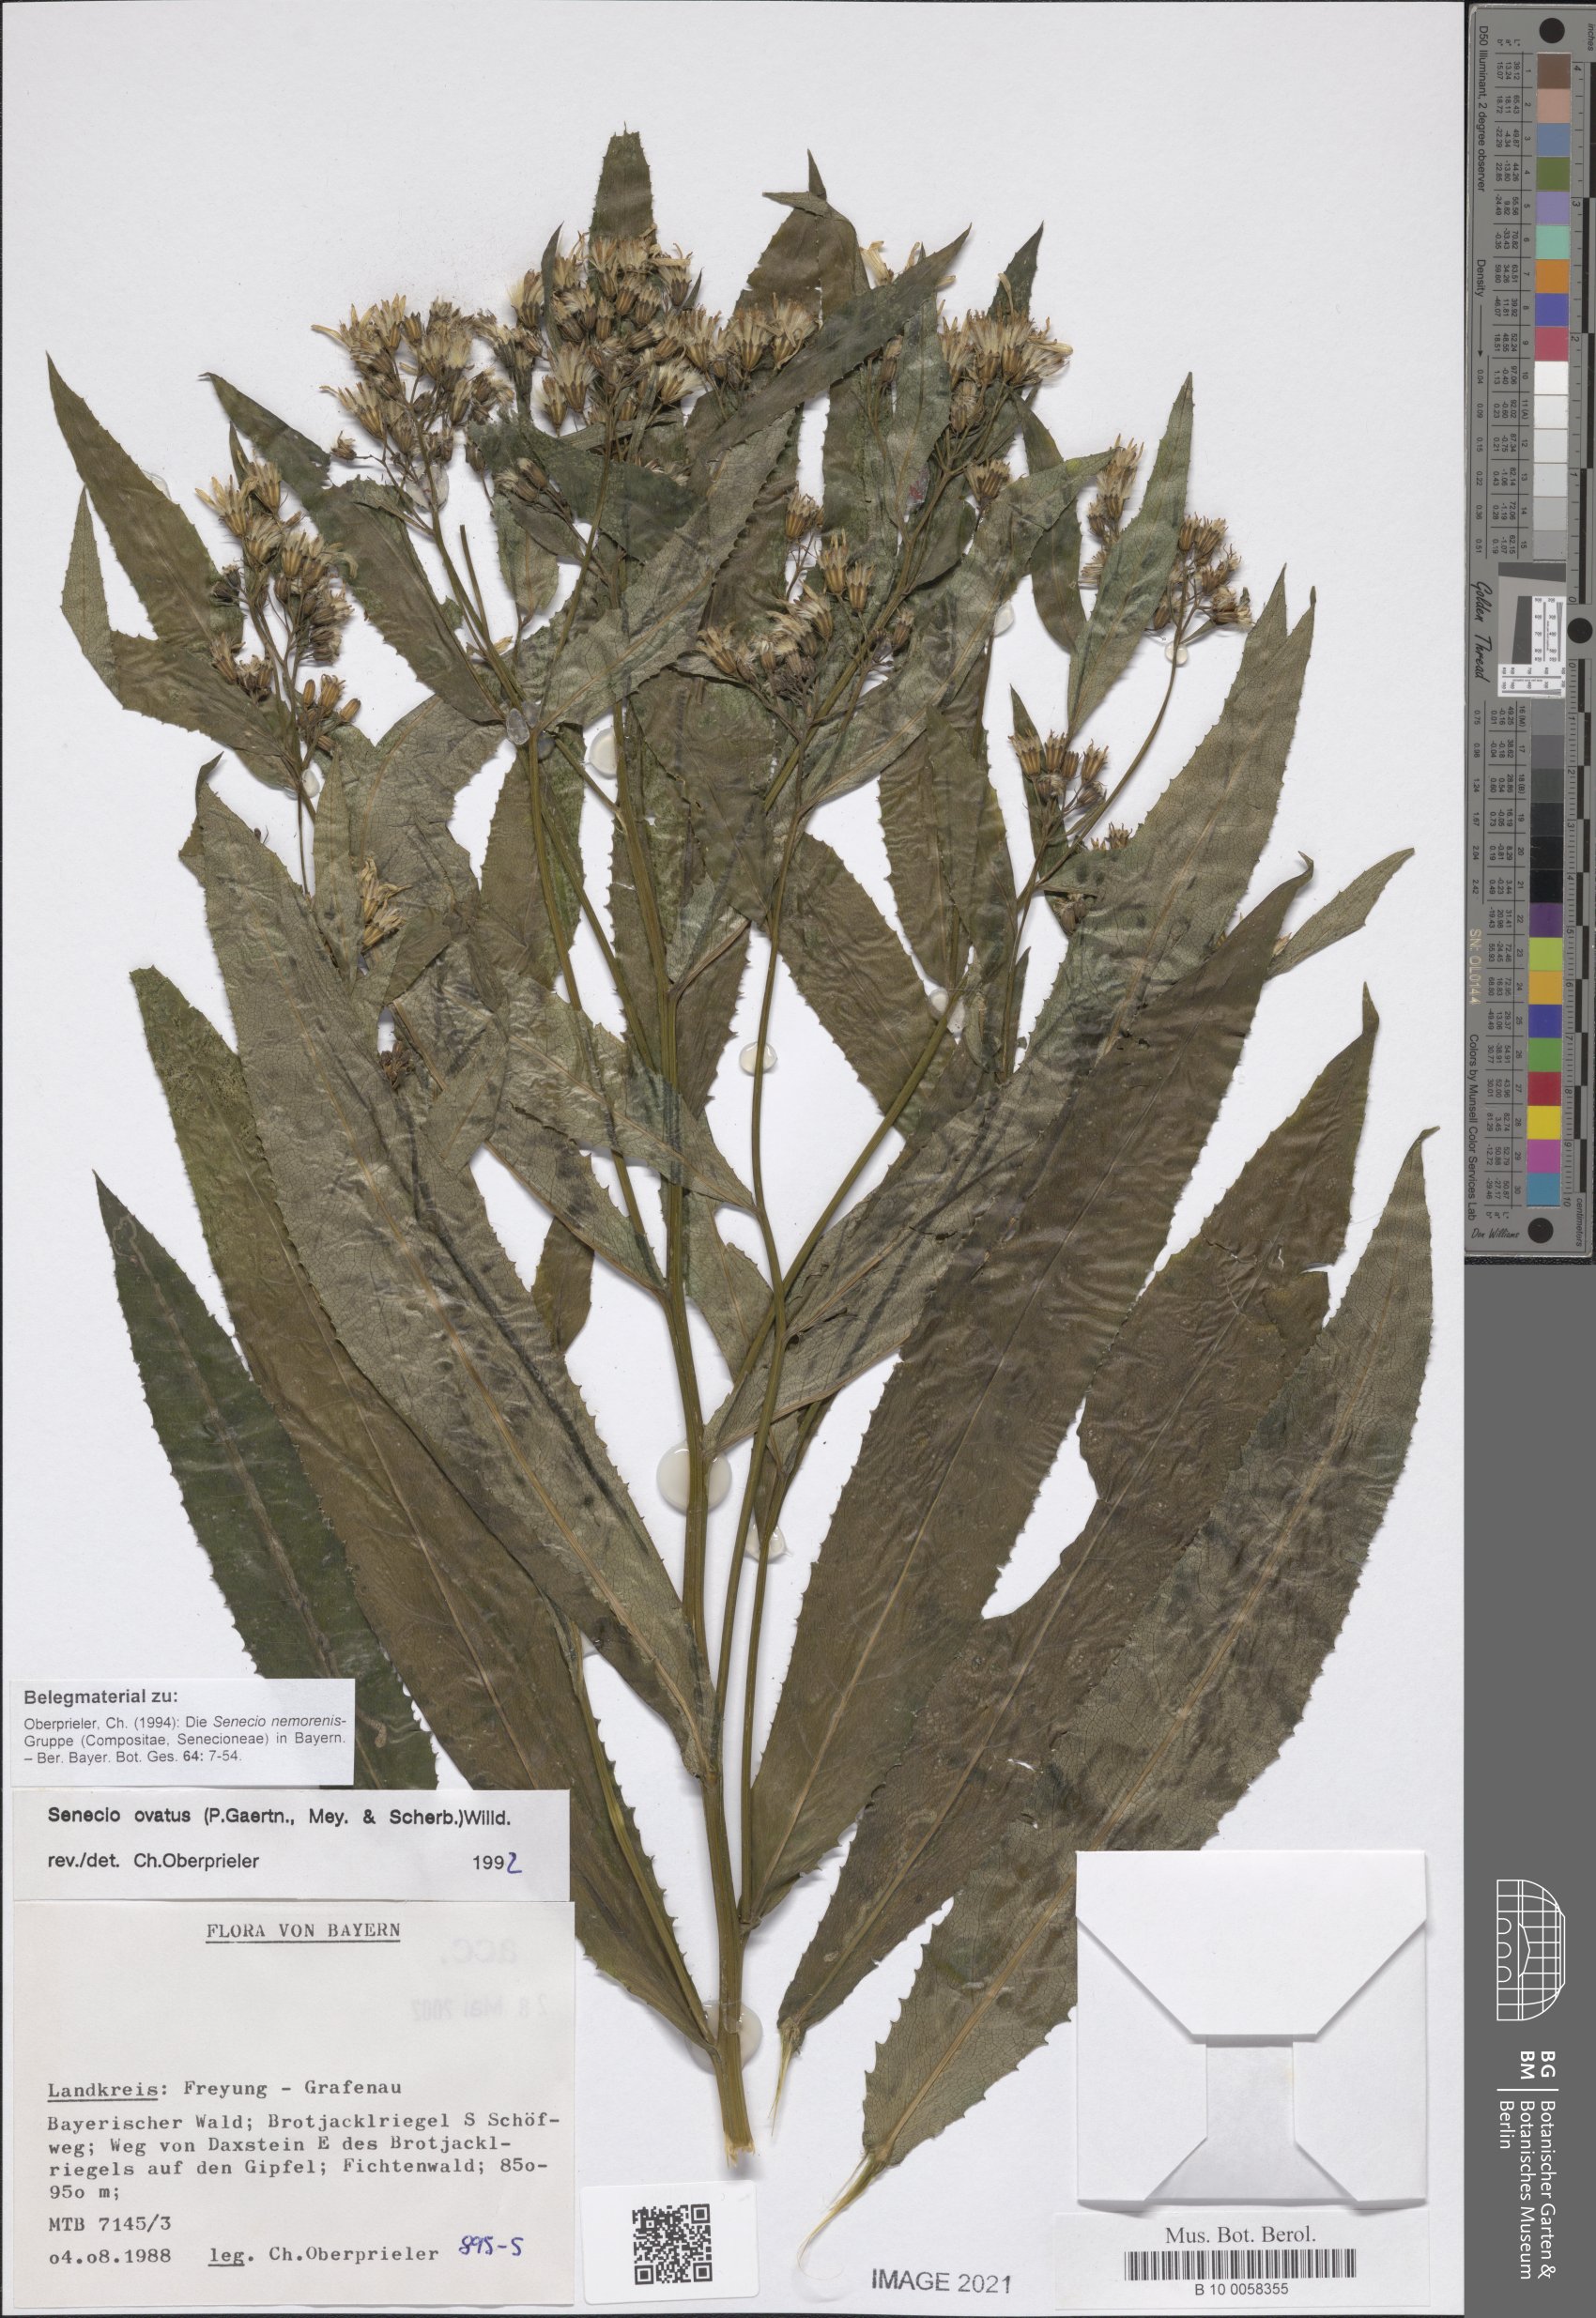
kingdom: Plantae
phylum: Tracheophyta
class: Magnoliopsida
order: Asterales
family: Asteraceae
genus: Senecio
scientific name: Senecio ovatus
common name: Wood ragwort
